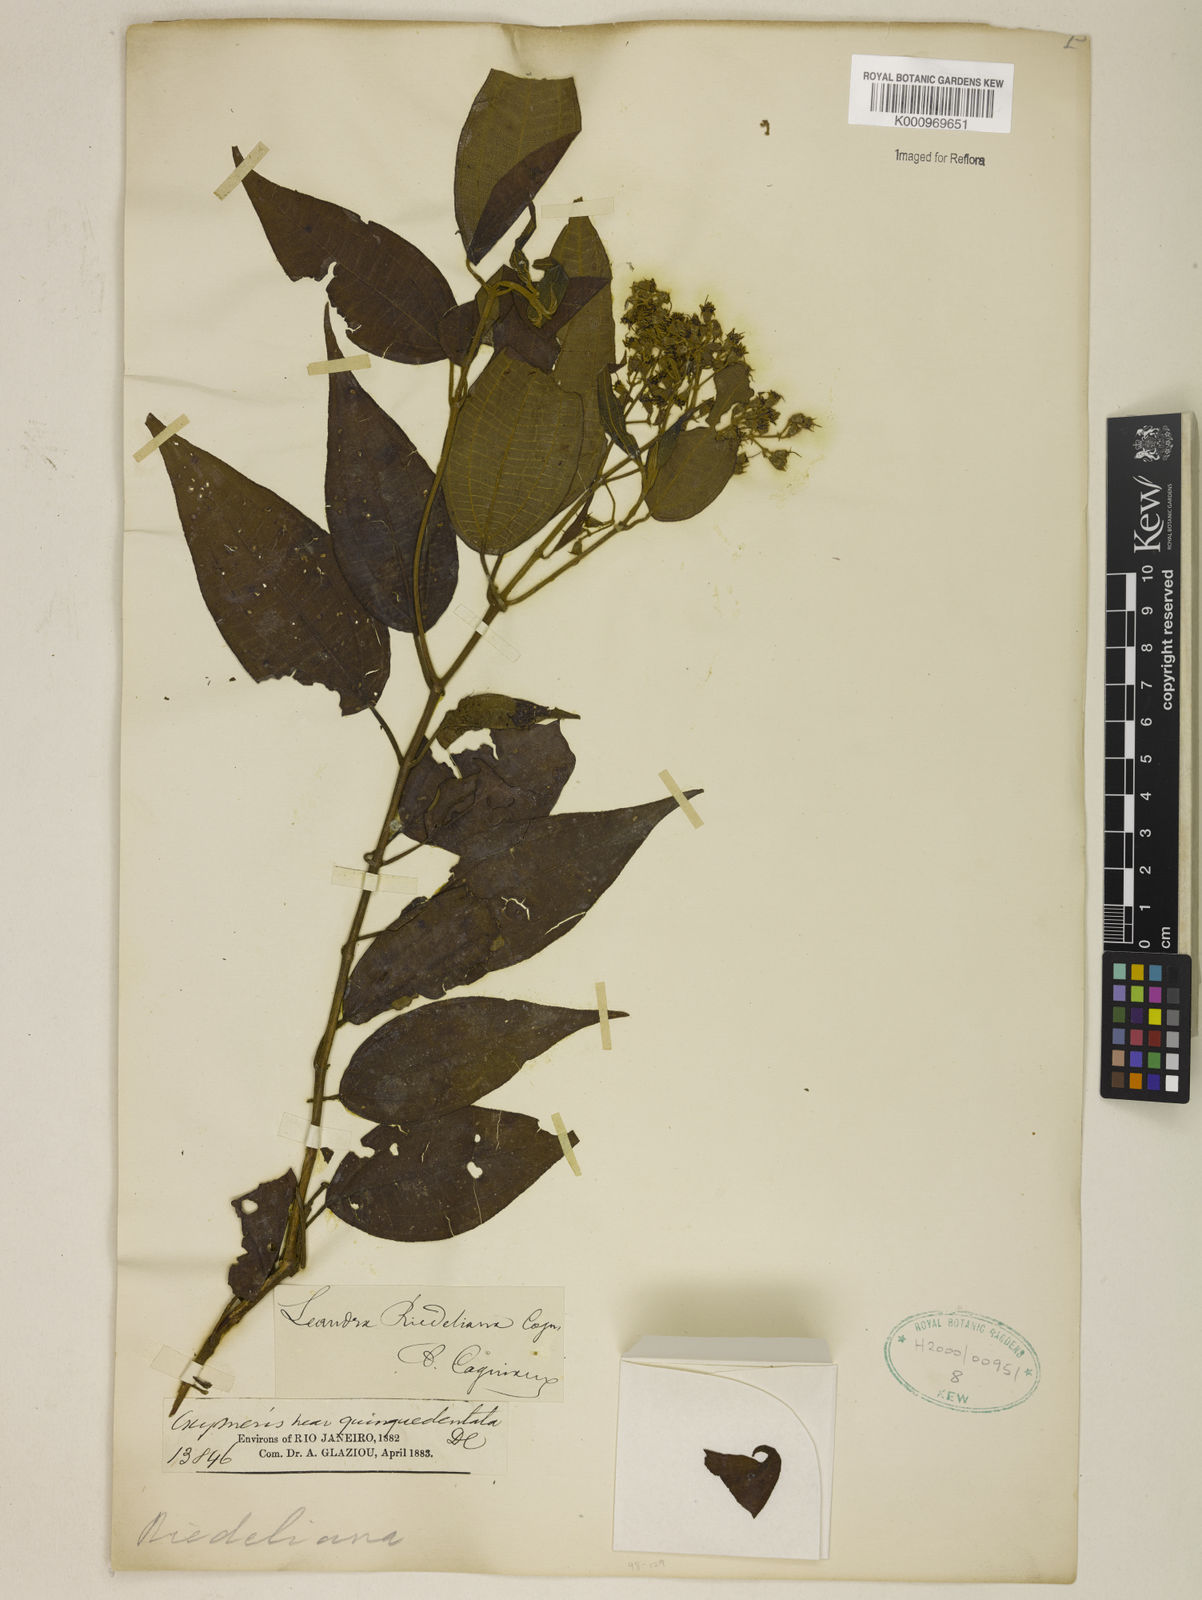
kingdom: Plantae
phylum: Tracheophyta
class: Magnoliopsida
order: Myrtales
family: Melastomataceae
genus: Miconia
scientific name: Miconia riedeliana
